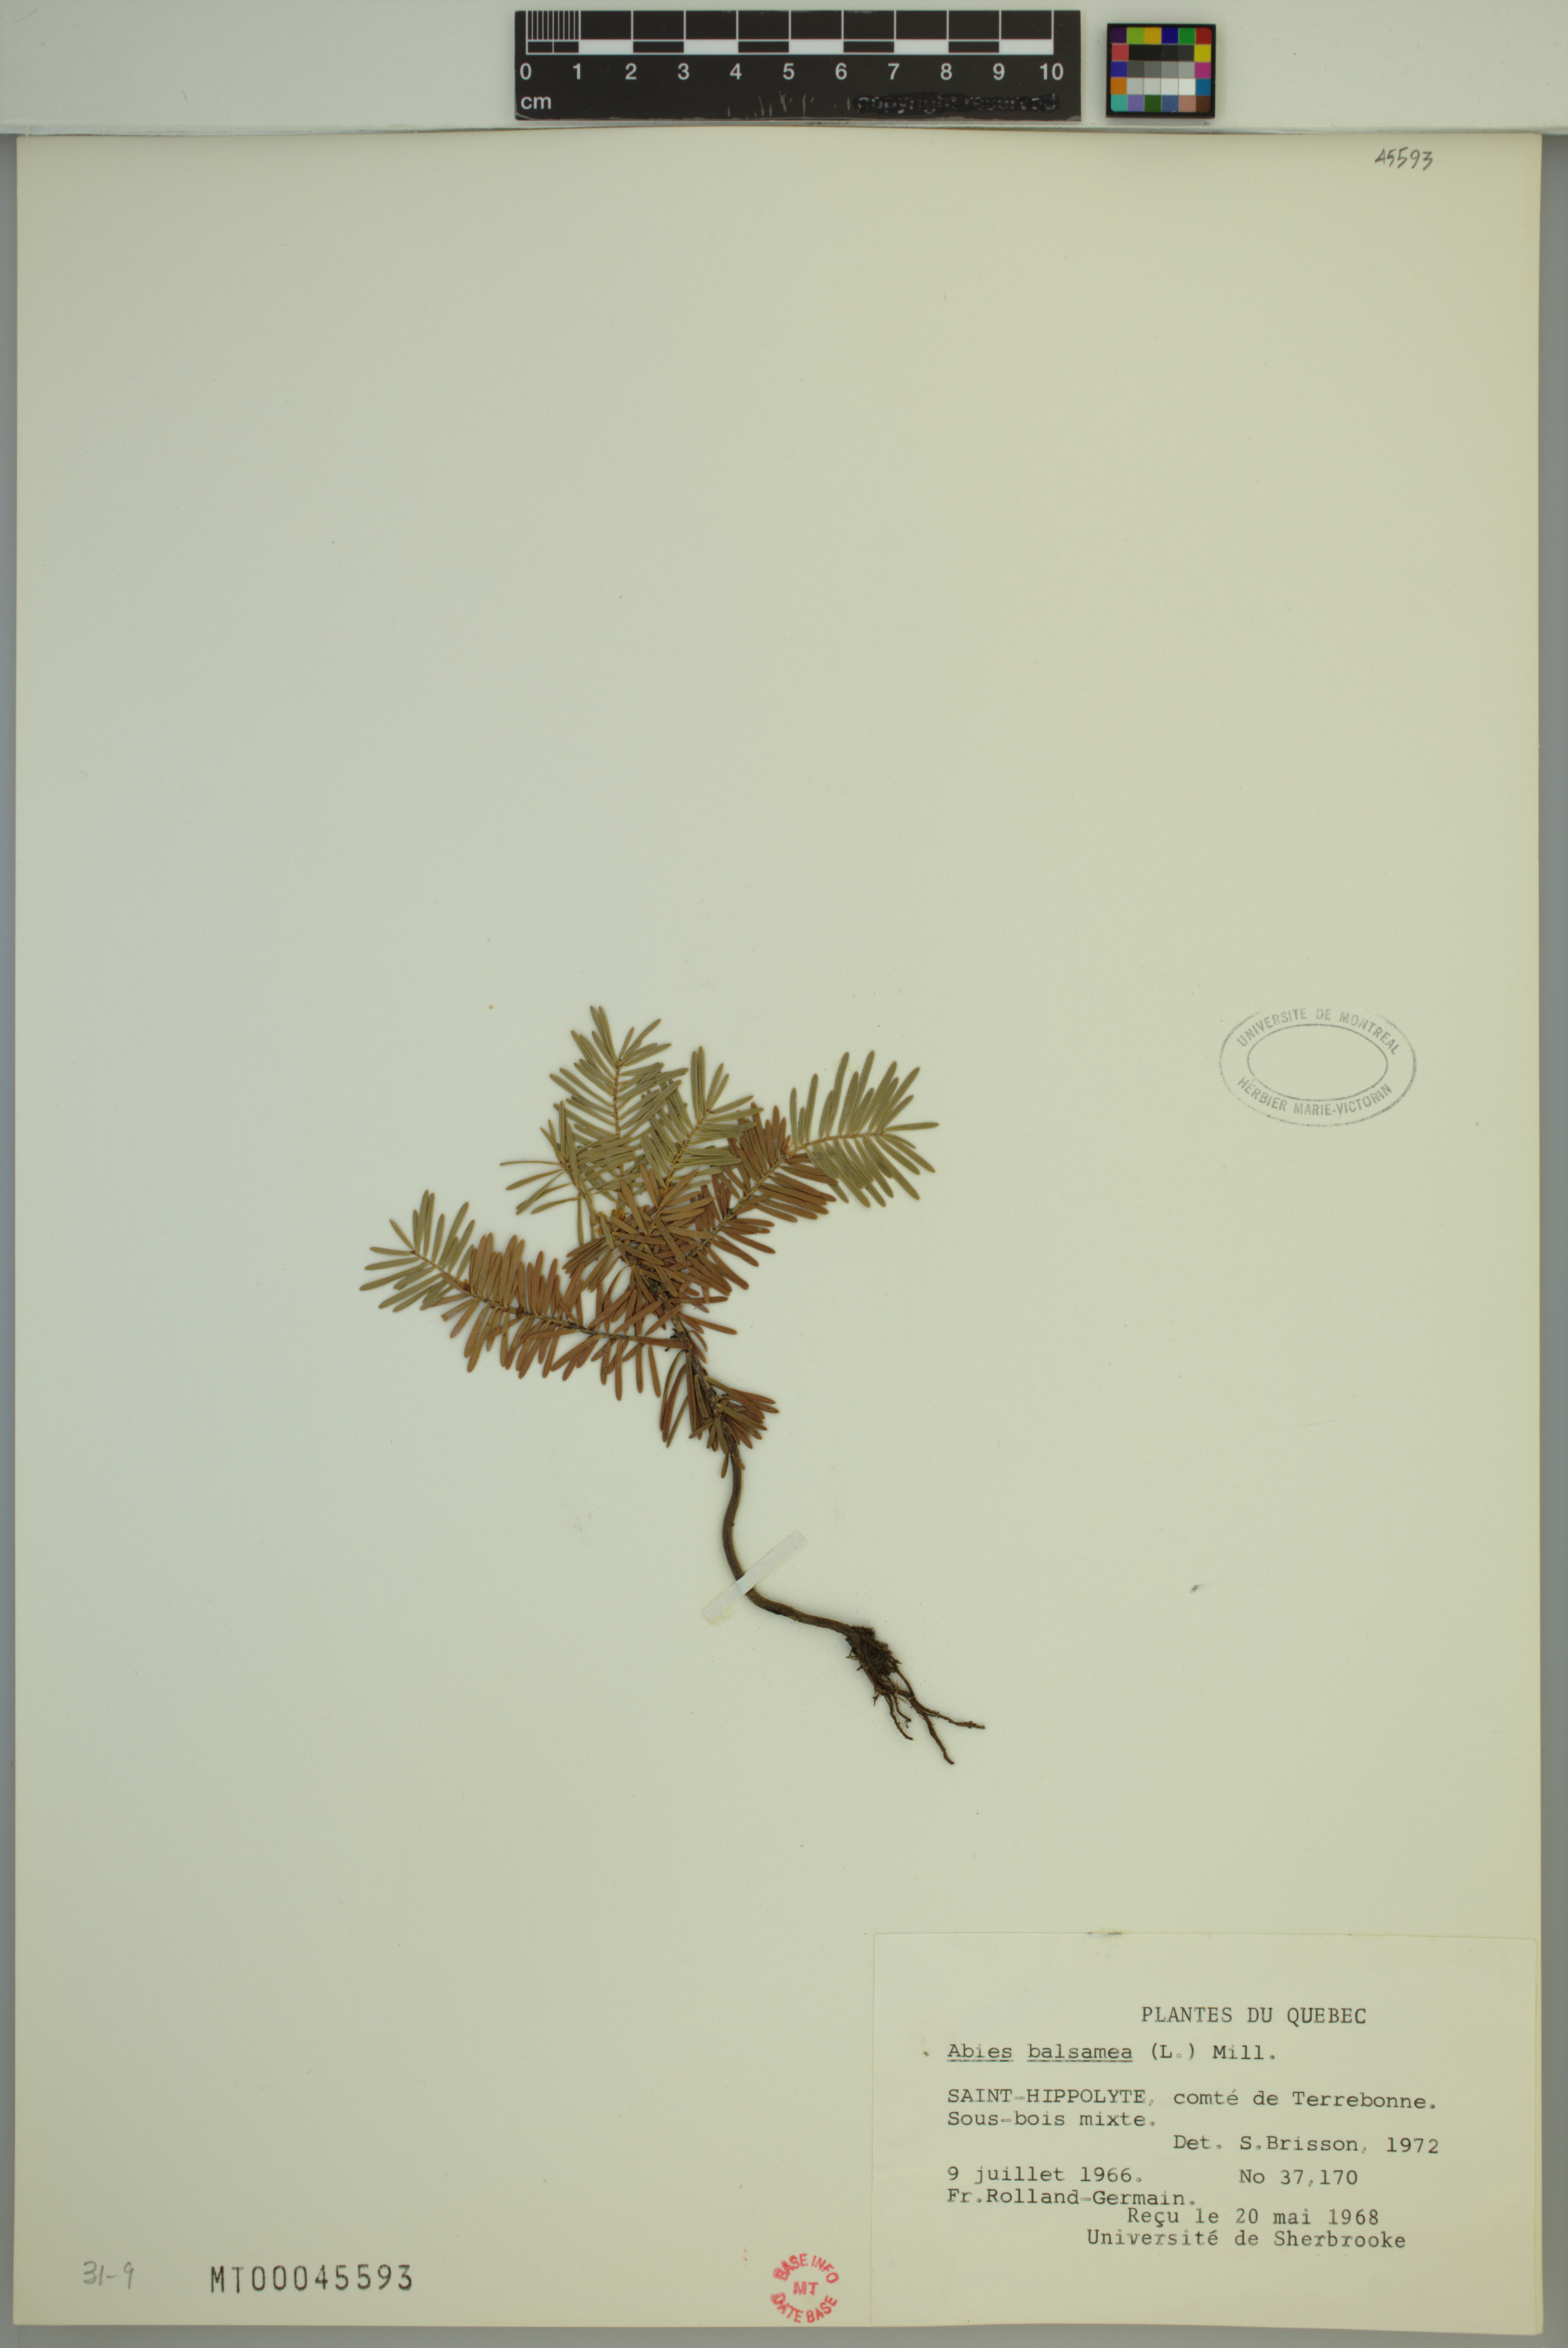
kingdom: Plantae
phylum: Tracheophyta
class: Pinopsida
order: Pinales
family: Pinaceae
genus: Abies
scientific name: Abies balsamea
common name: Balsam fir
